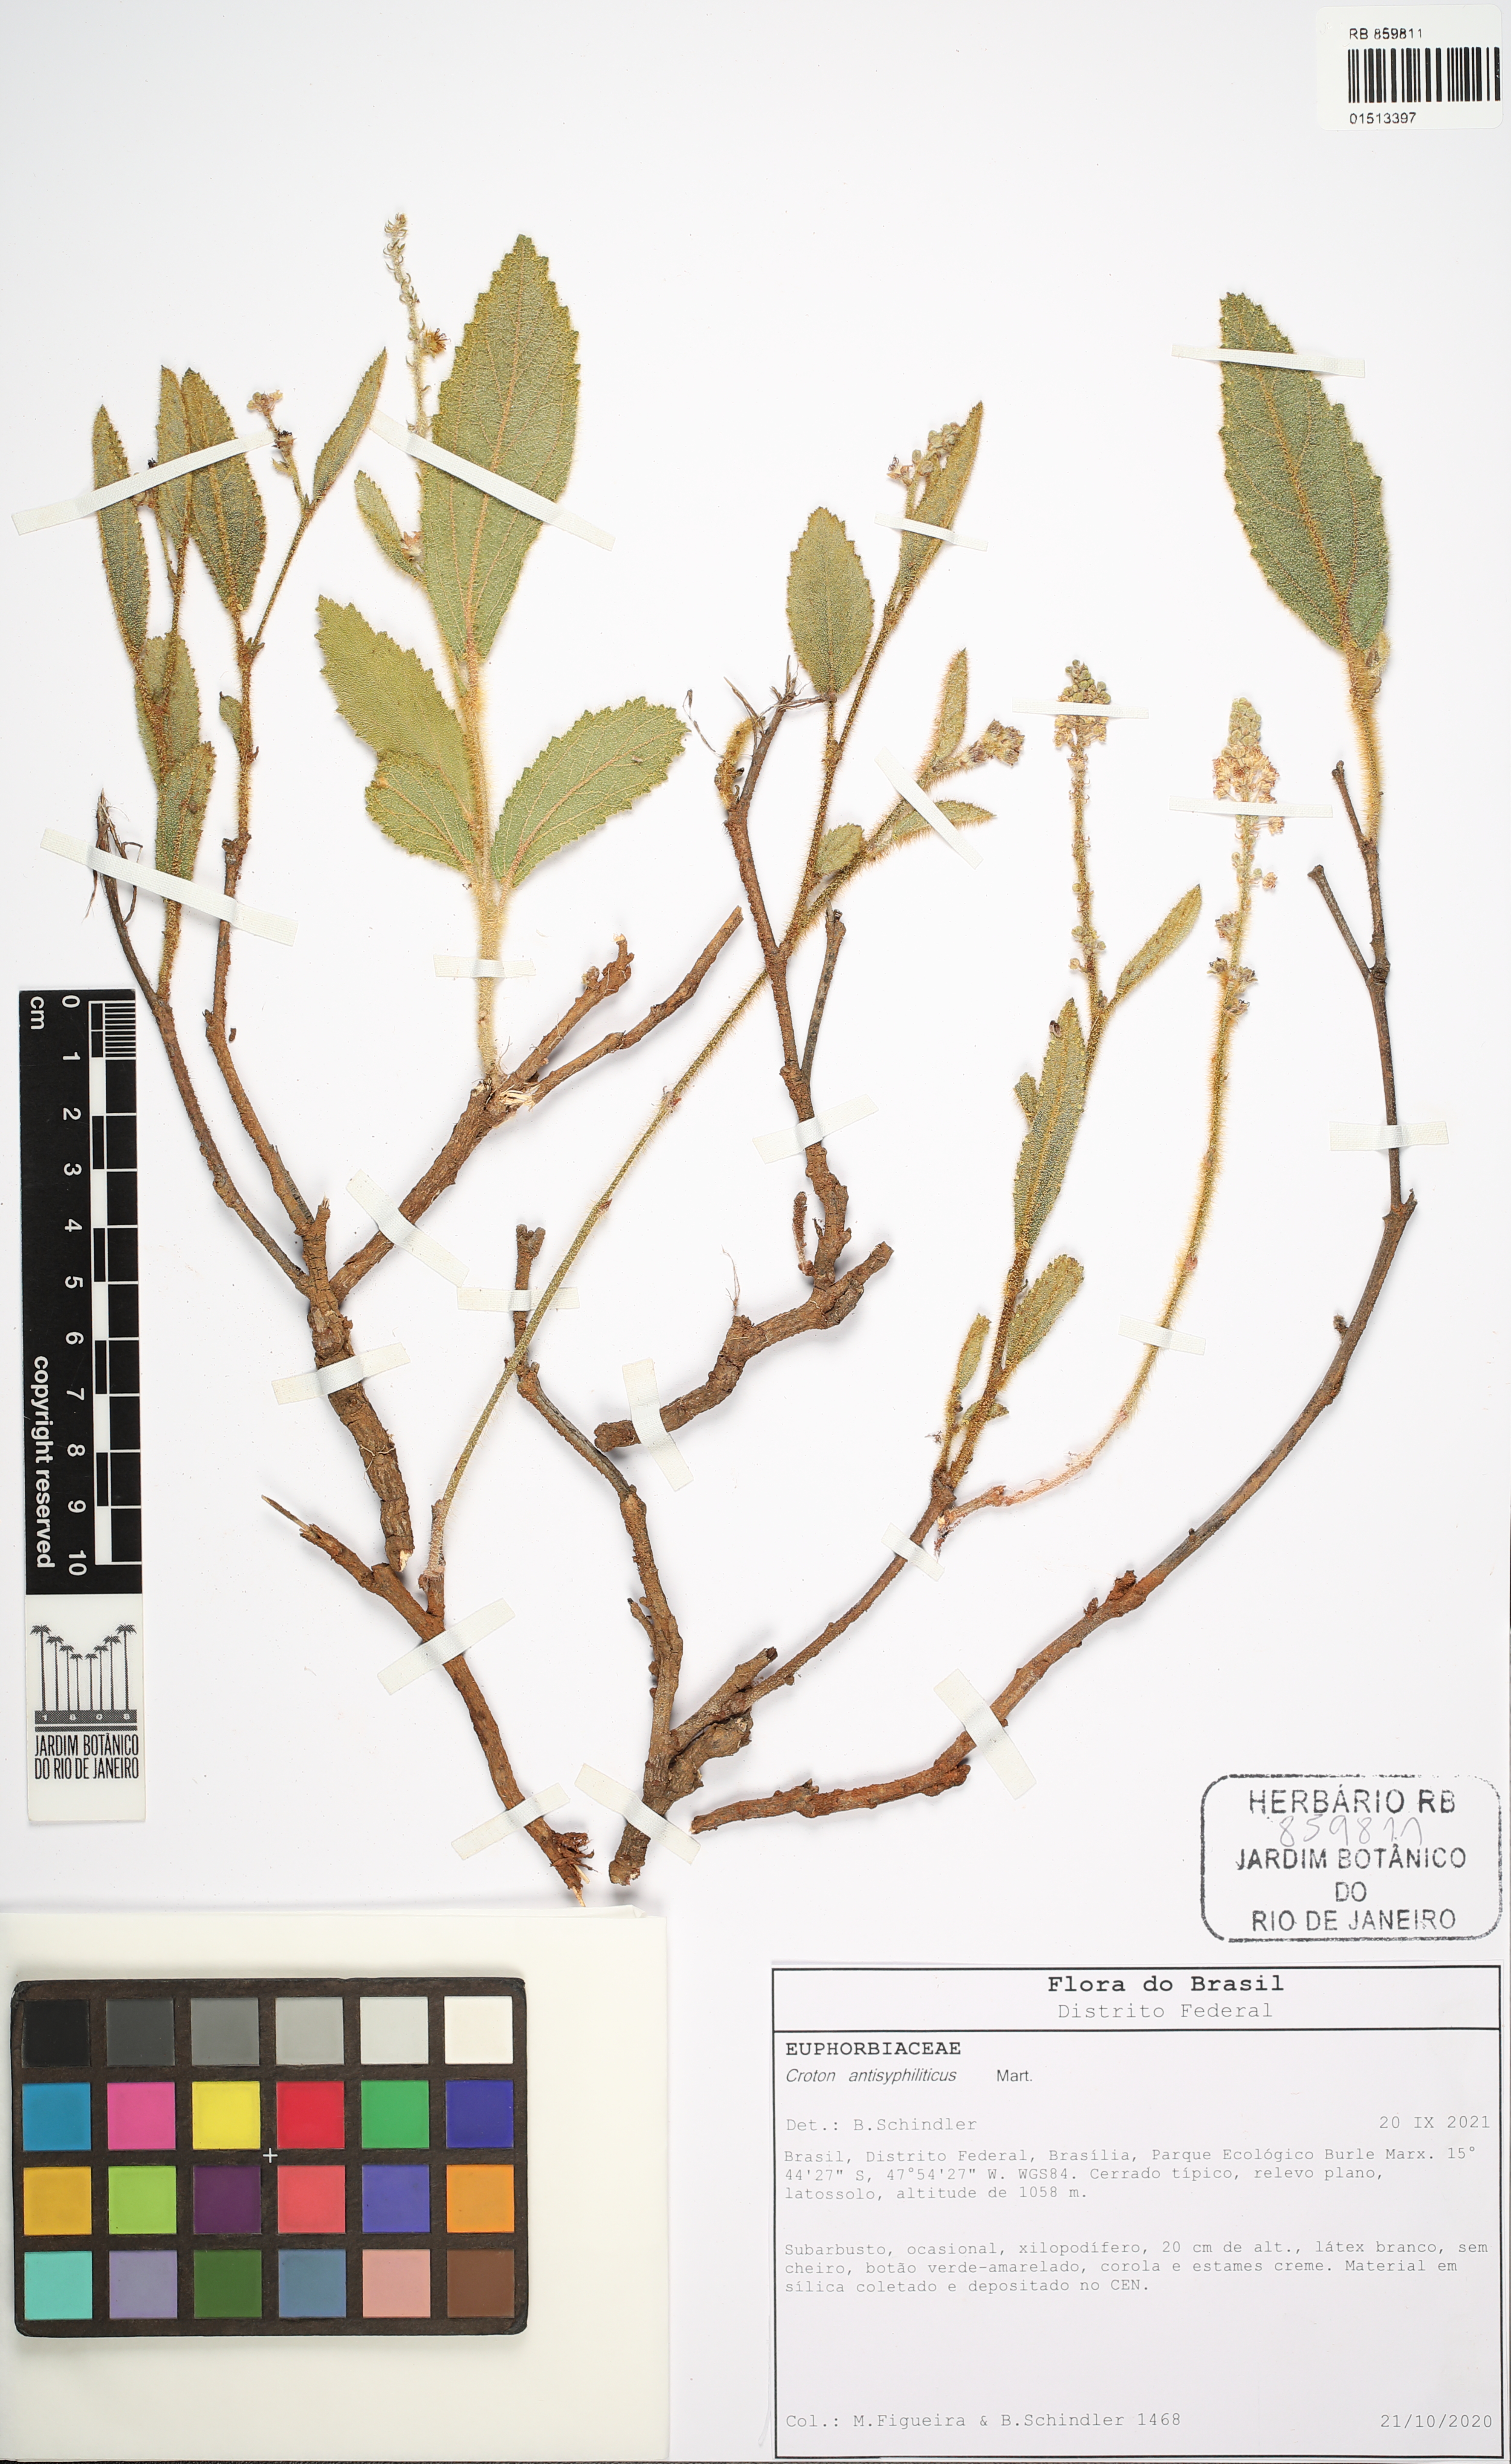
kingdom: Plantae
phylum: Tracheophyta
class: Magnoliopsida
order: Malpighiales
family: Euphorbiaceae
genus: Croton
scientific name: Croton antisyphiliticus
